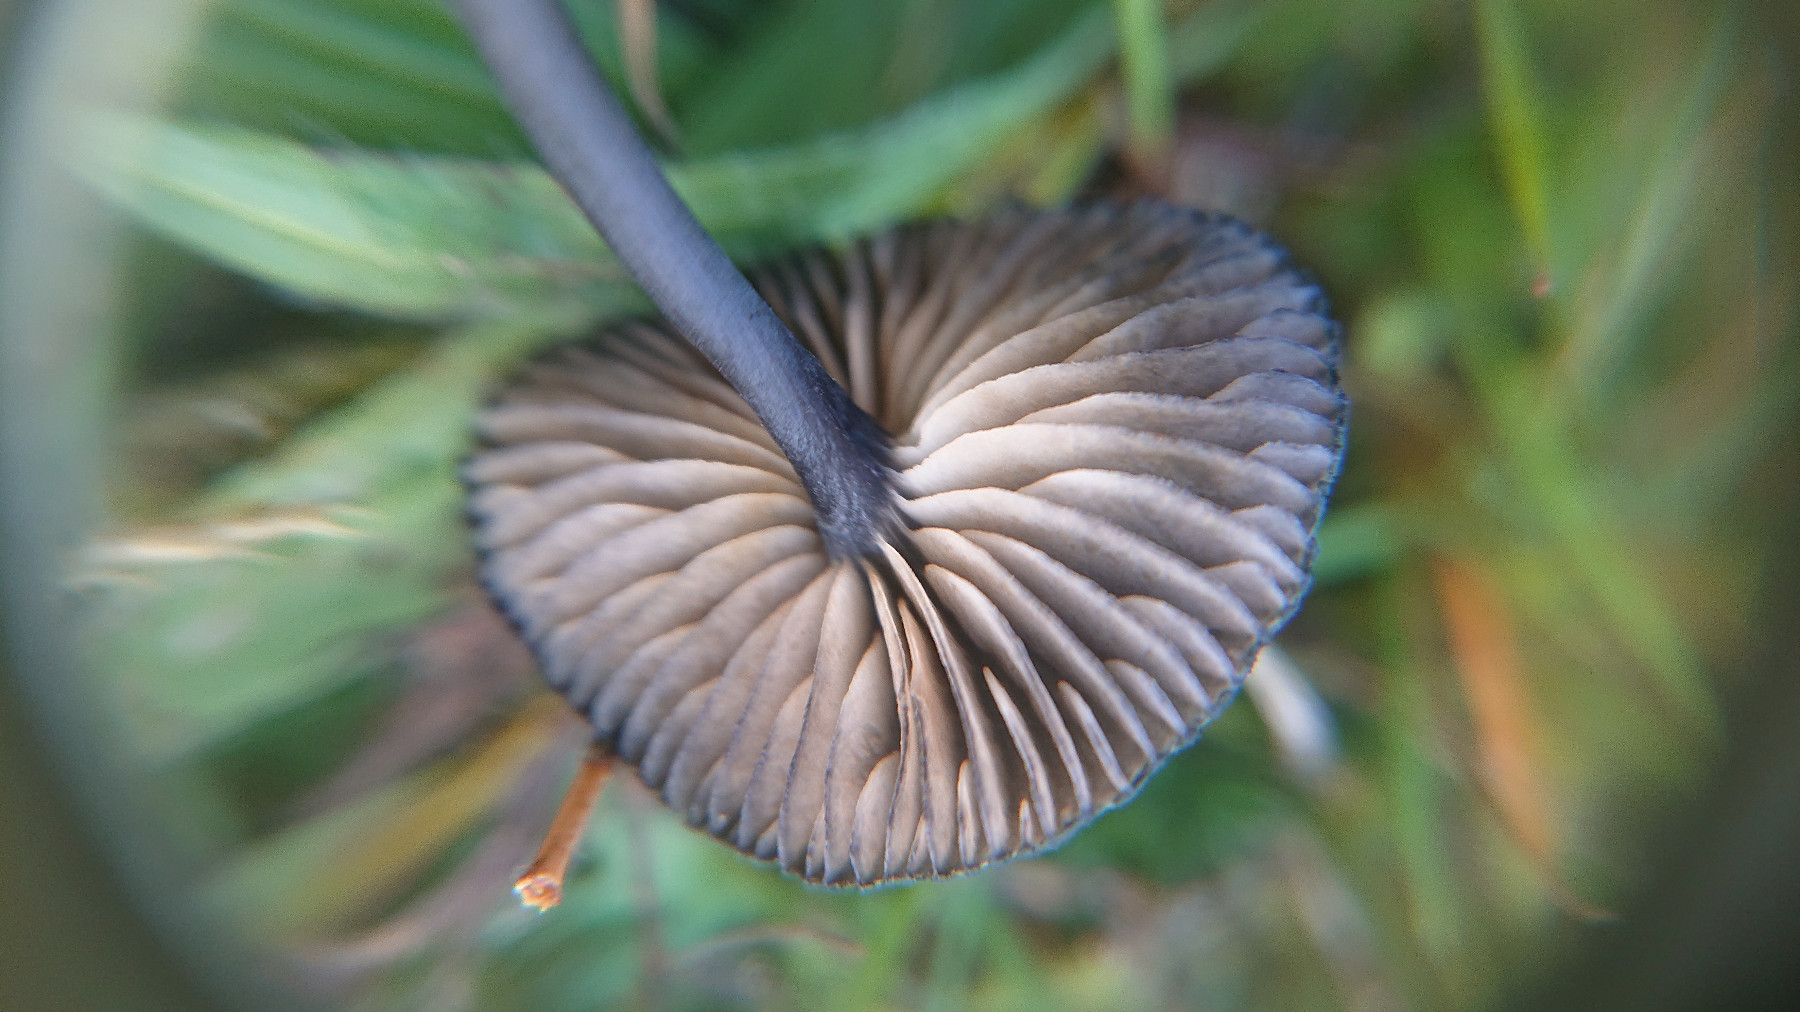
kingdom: Fungi
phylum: Basidiomycota
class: Agaricomycetes
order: Agaricales
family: Entolomataceae
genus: Entoloma
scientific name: Entoloma
